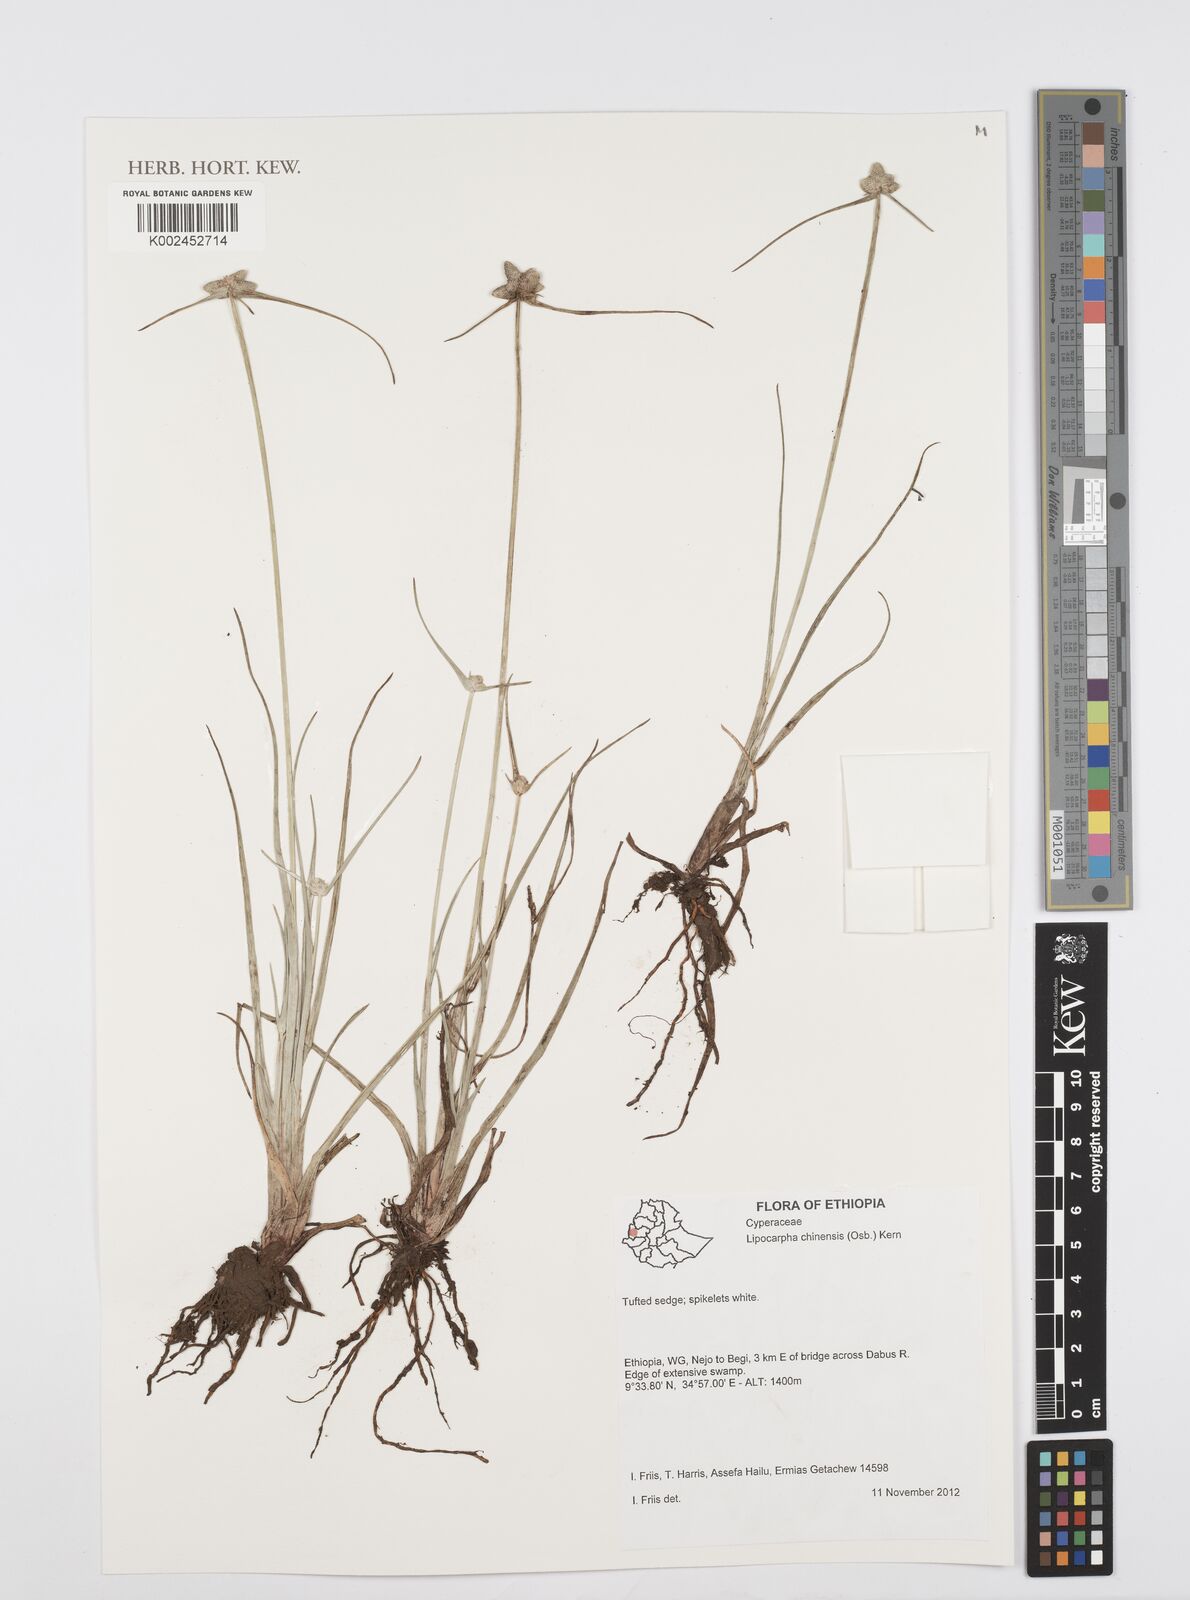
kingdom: Plantae
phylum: Tracheophyta
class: Liliopsida
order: Poales
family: Cyperaceae
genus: Cyperus
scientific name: Cyperus albescens
